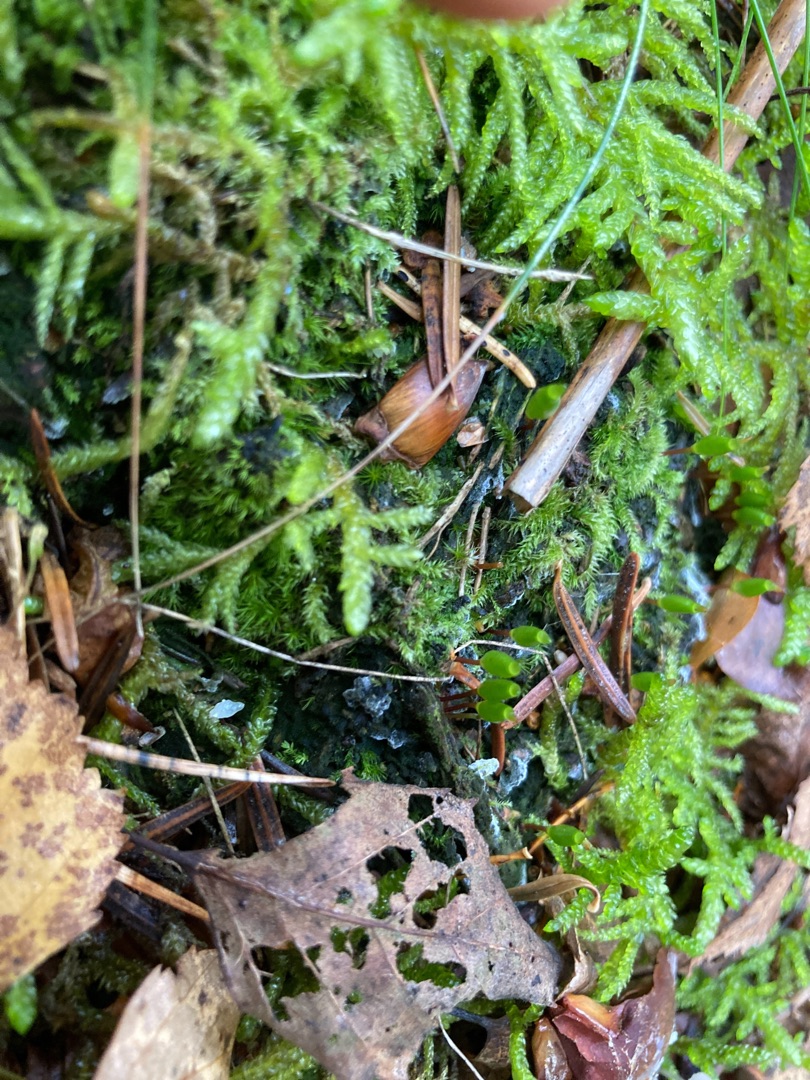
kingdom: Plantae
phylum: Bryophyta
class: Bryopsida
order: Buxbaumiales
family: Buxbaumiaceae
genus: Buxbaumia
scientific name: Buxbaumia viridis
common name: Grøn buxbaumia
